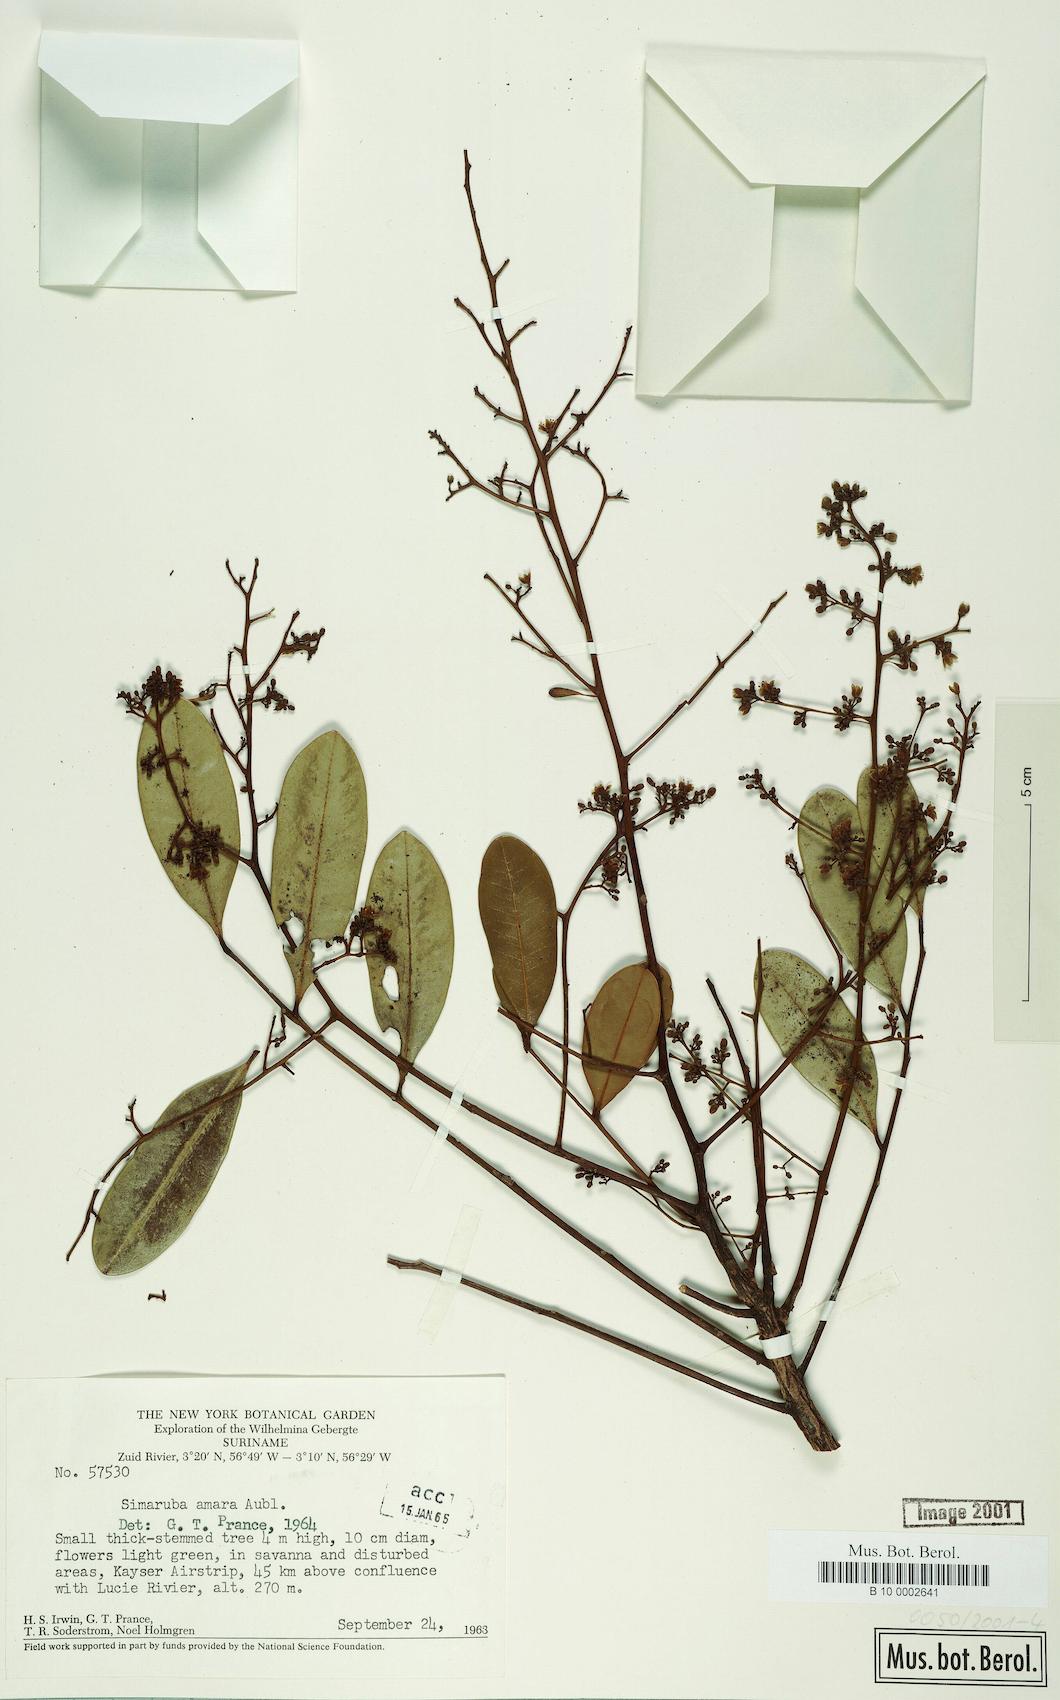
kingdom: Plantae
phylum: Tracheophyta
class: Magnoliopsida
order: Sapindales
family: Simaroubaceae
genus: Simarouba
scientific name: Simarouba amara
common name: Bitterwood
